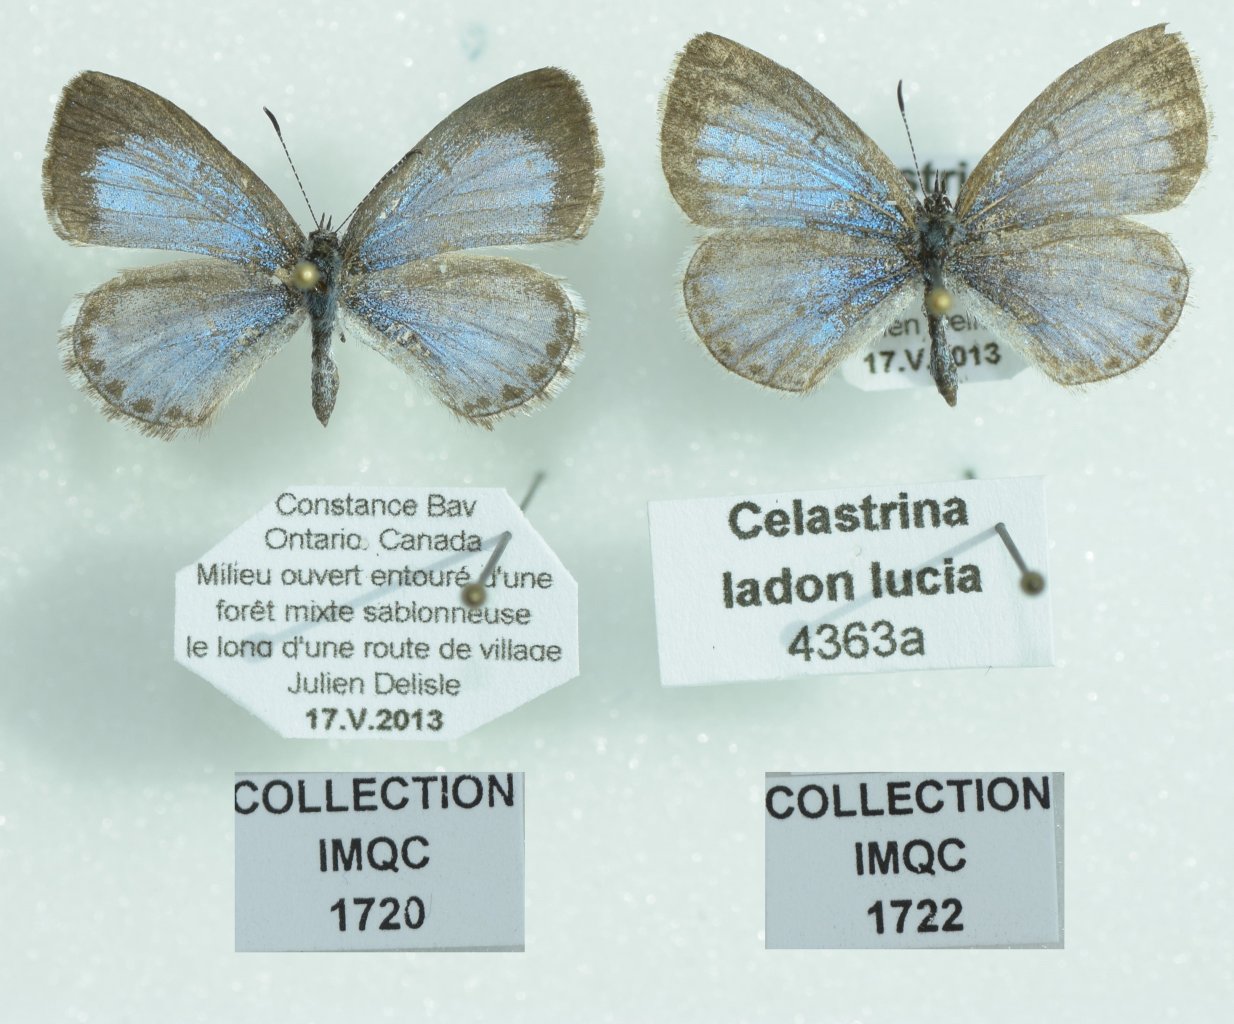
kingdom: Animalia
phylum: Arthropoda
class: Insecta
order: Lepidoptera
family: Lycaenidae
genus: Celastrina
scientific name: Celastrina lucia
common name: Northern Spring Azure
